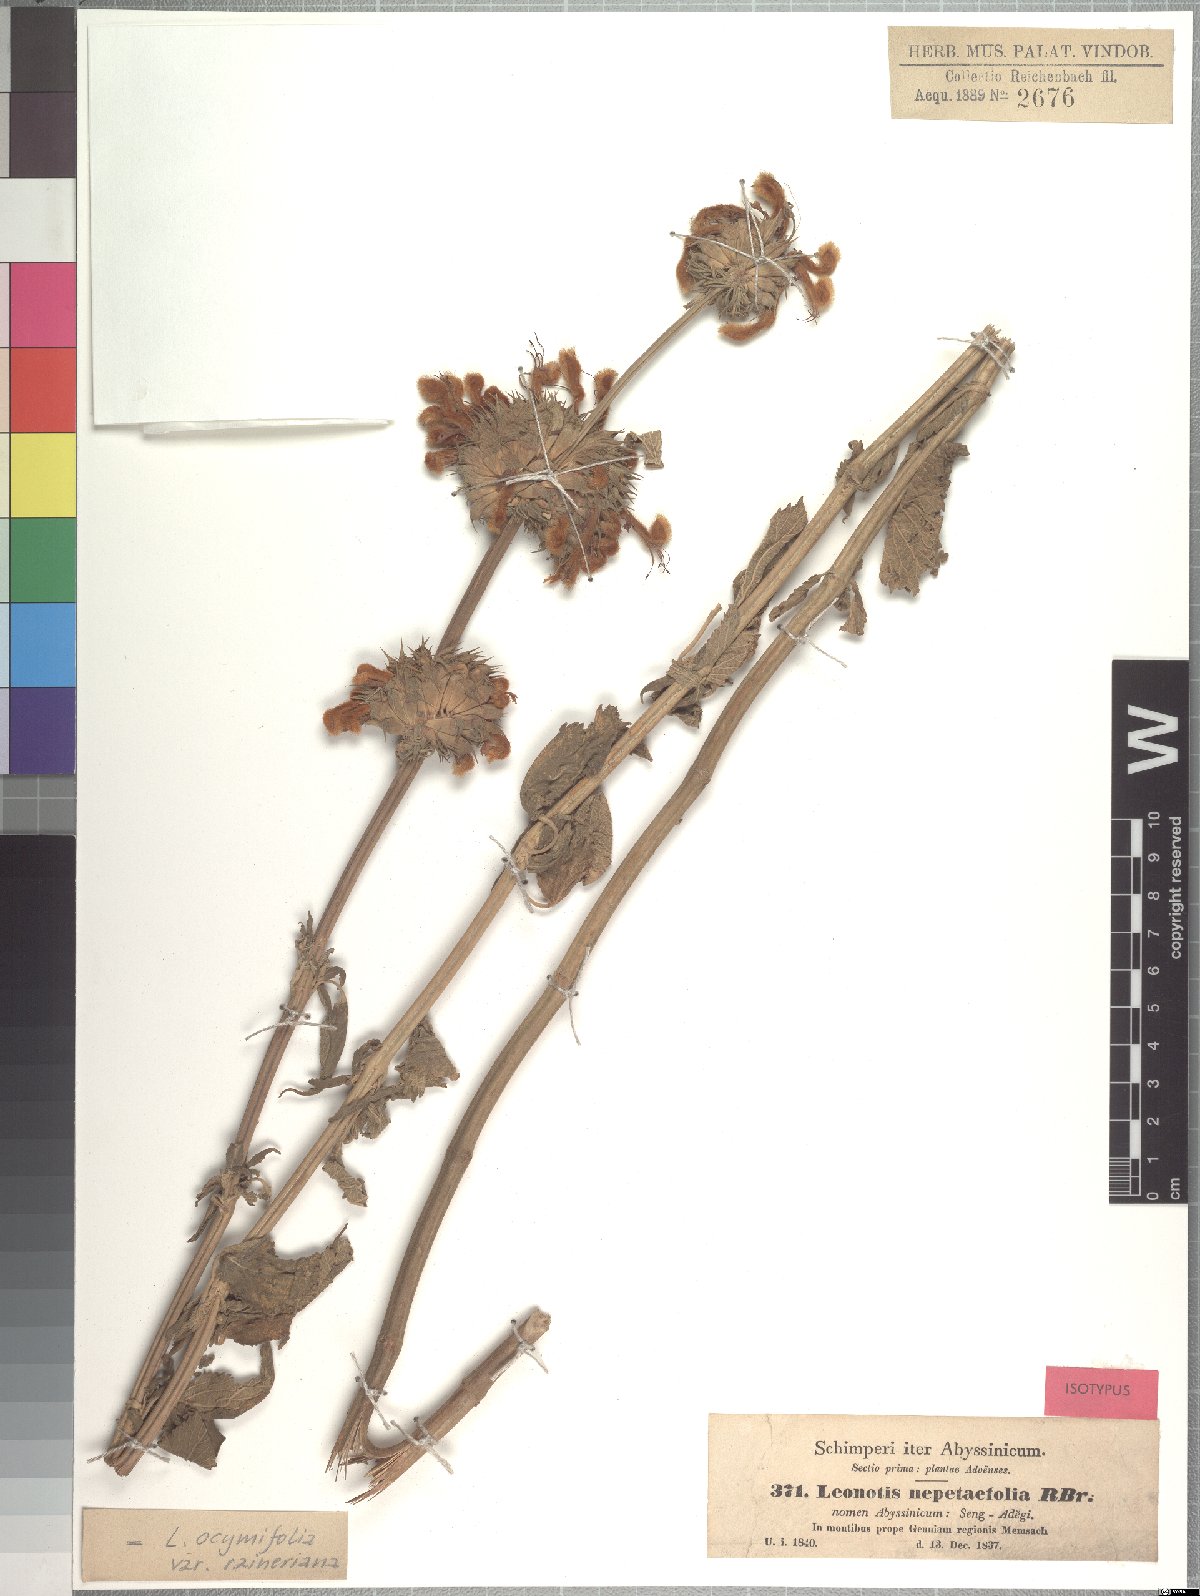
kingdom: Plantae
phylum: Tracheophyta
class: Magnoliopsida
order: Lamiales
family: Lamiaceae
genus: Leonotis
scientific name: Leonotis ocymifolia
